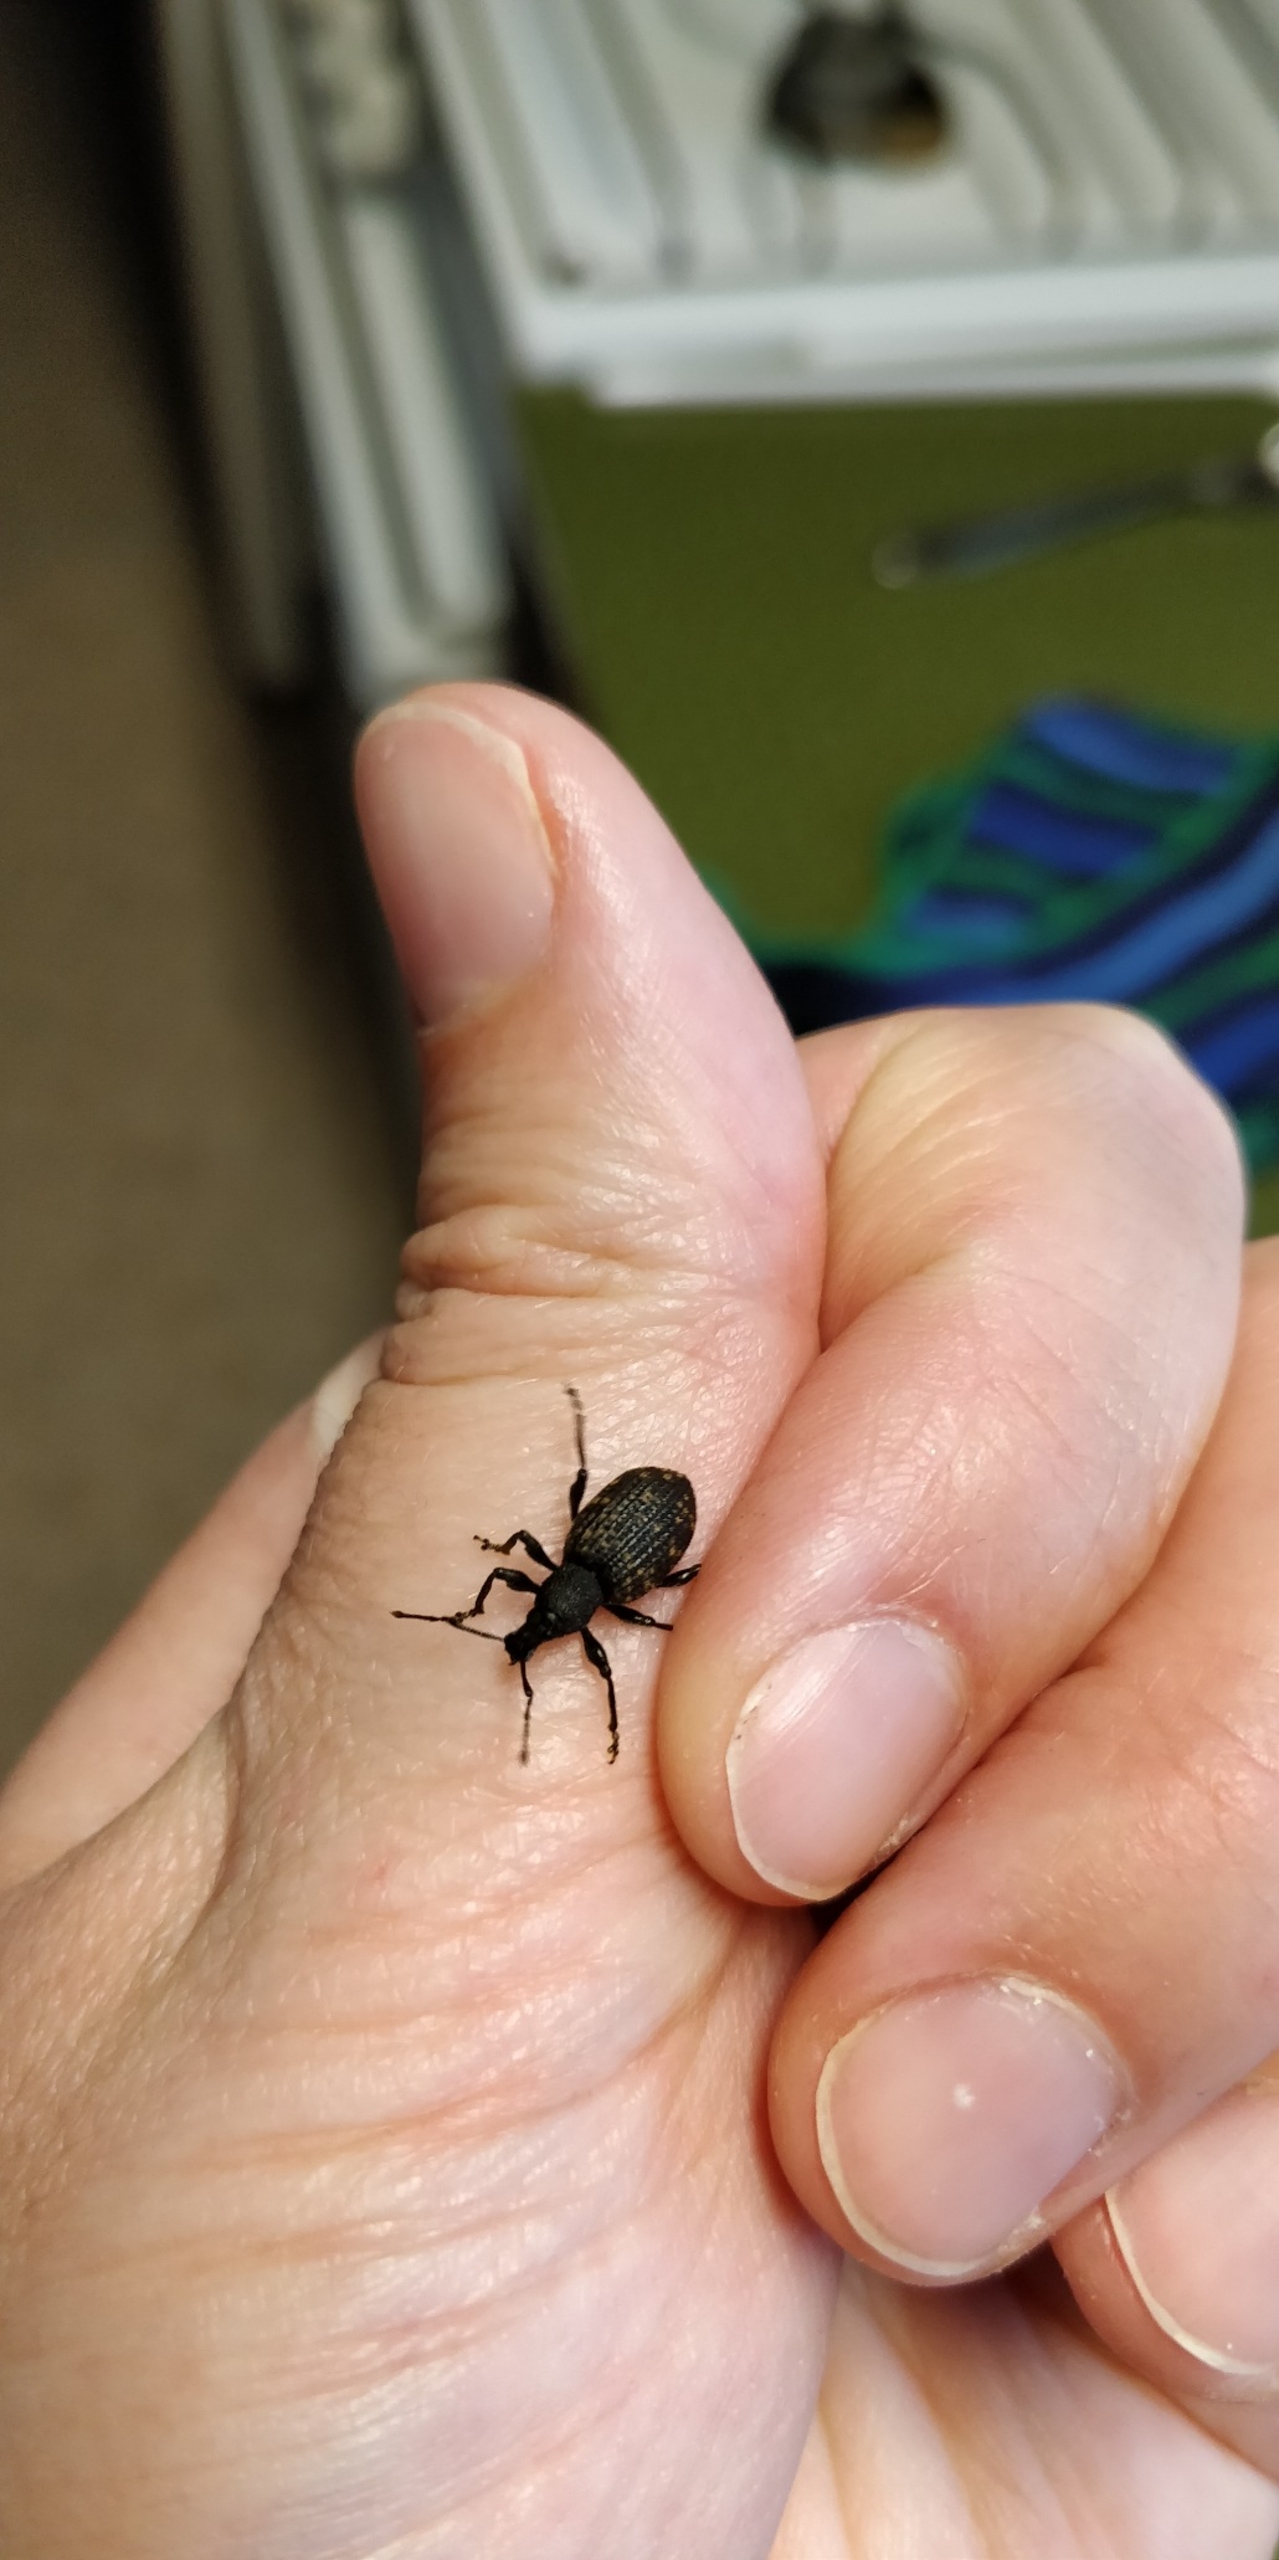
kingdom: Animalia
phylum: Arthropoda
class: Insecta
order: Coleoptera
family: Curculionidae
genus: Otiorhynchus
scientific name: Otiorhynchus sulcatus
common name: Væksthussnudebille
